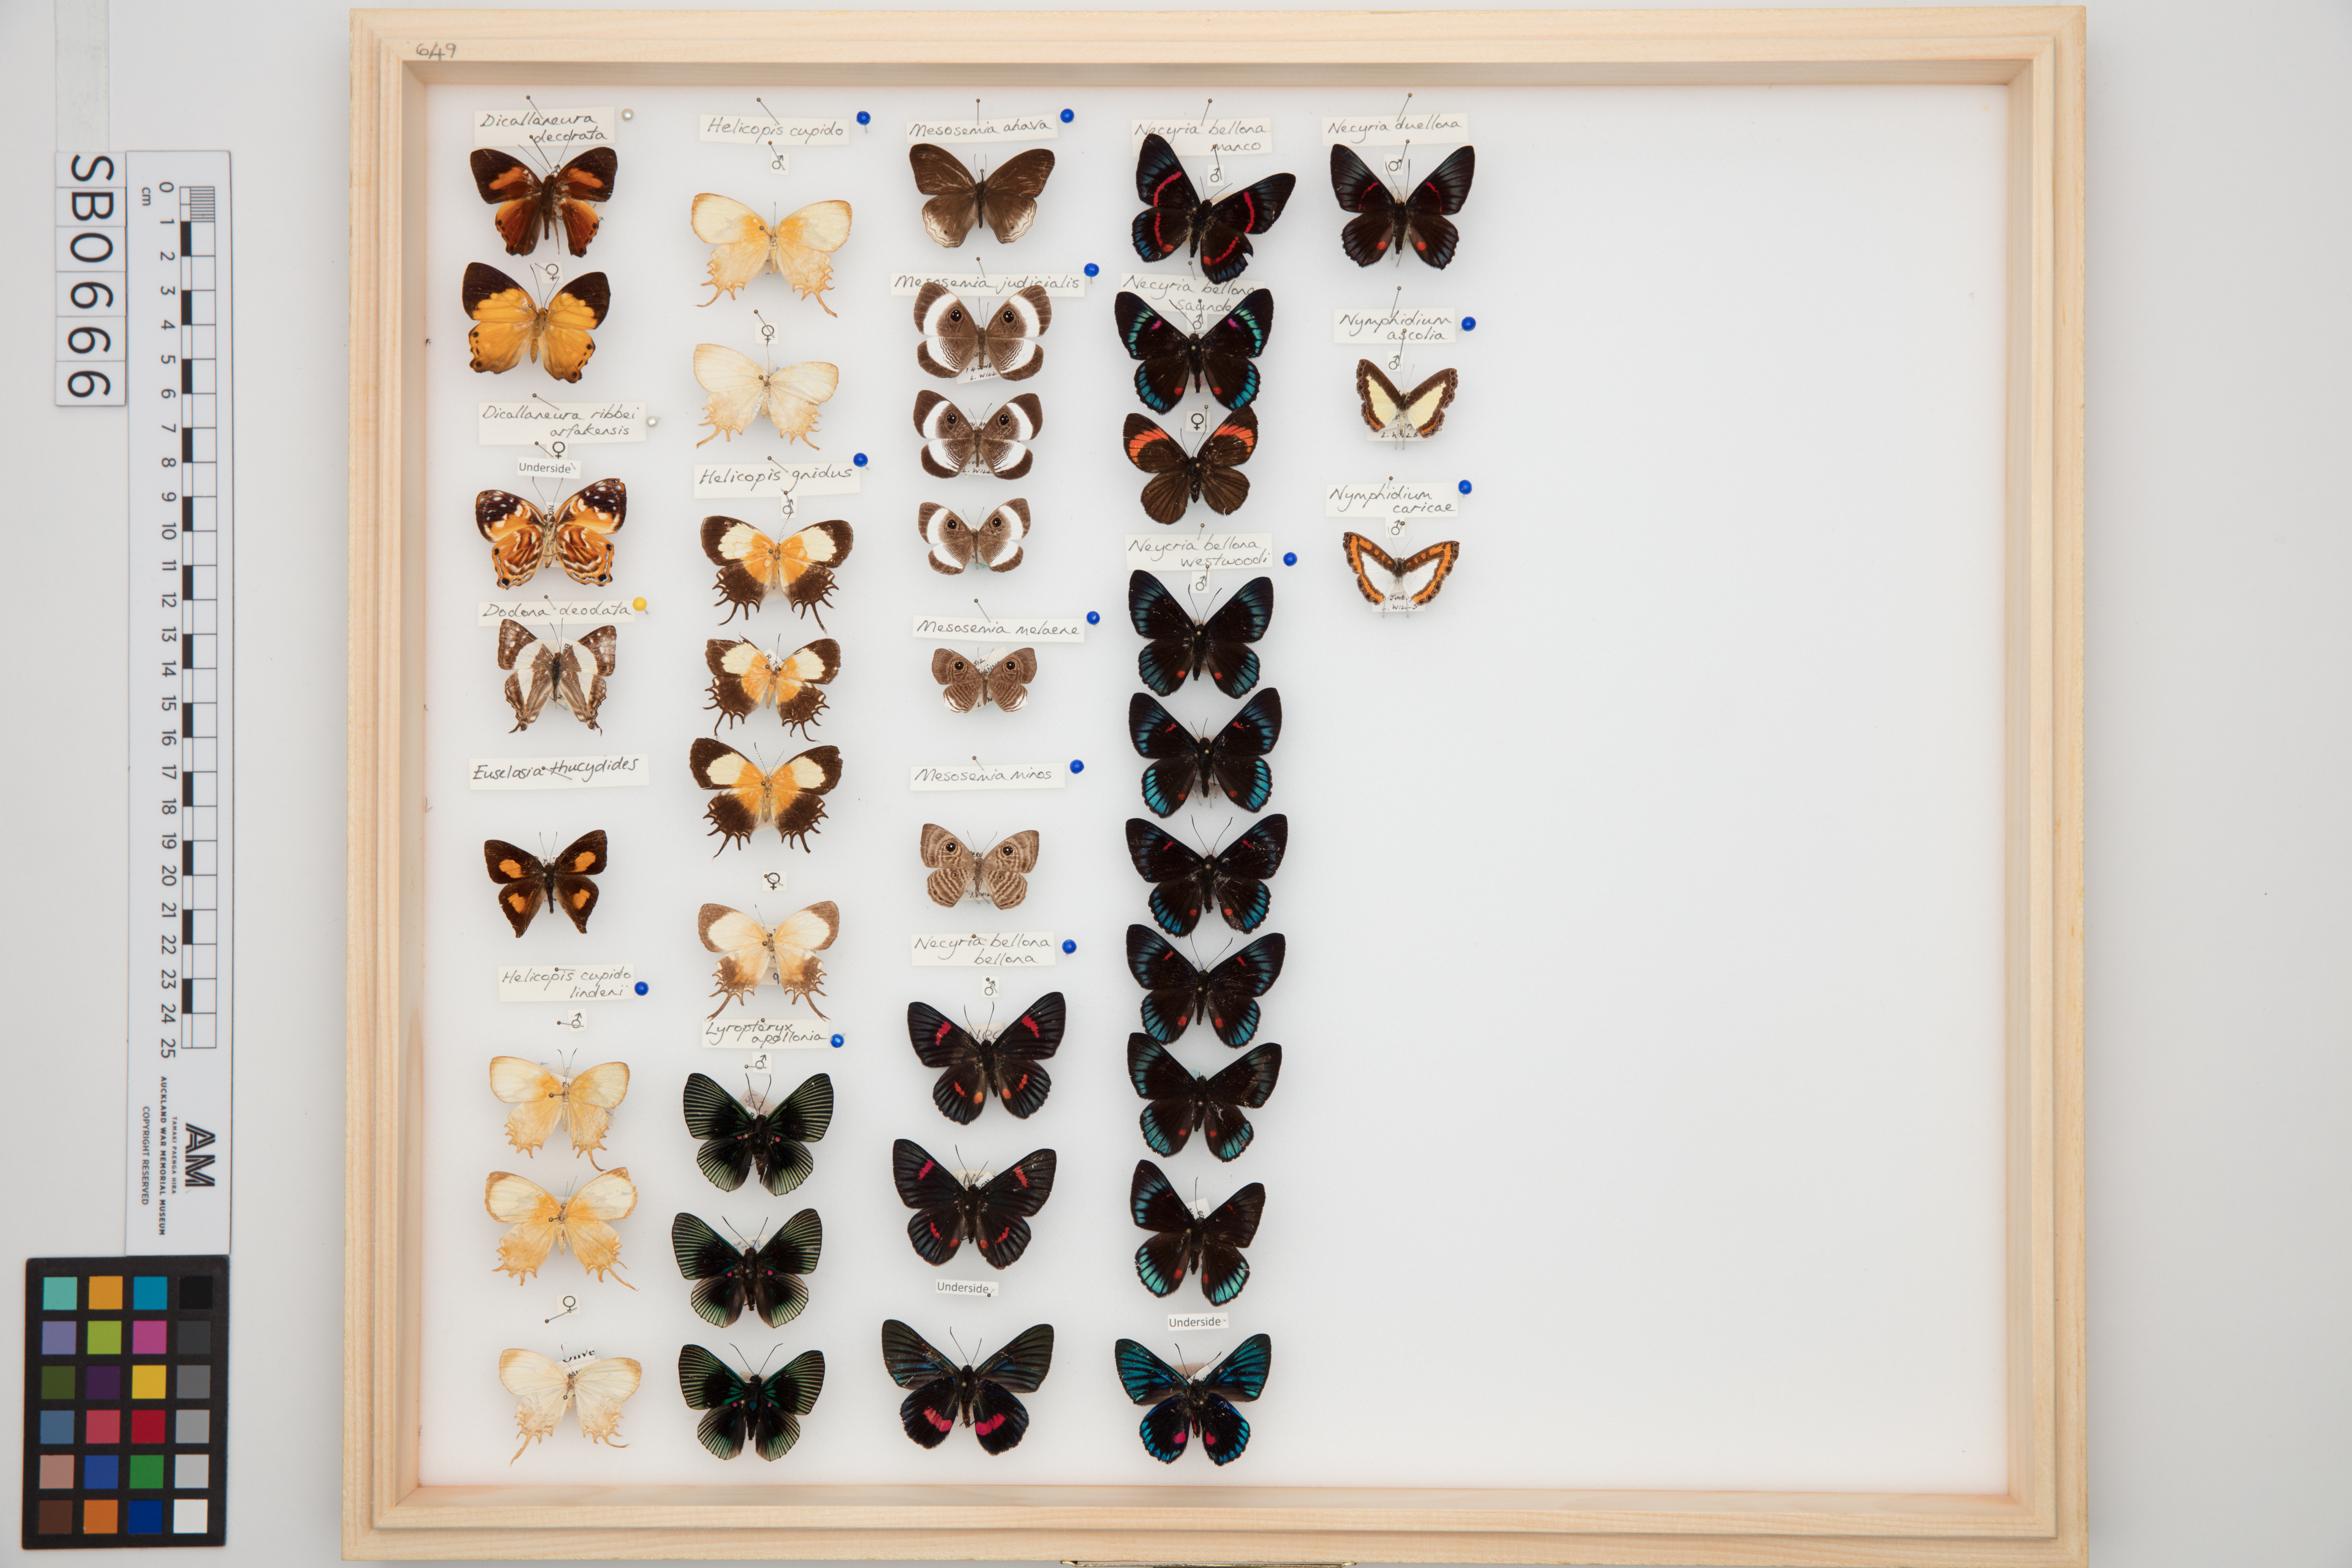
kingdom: Animalia
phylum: Arthropoda
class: Insecta
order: Lepidoptera
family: Riodinidae
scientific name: Riodinidae
